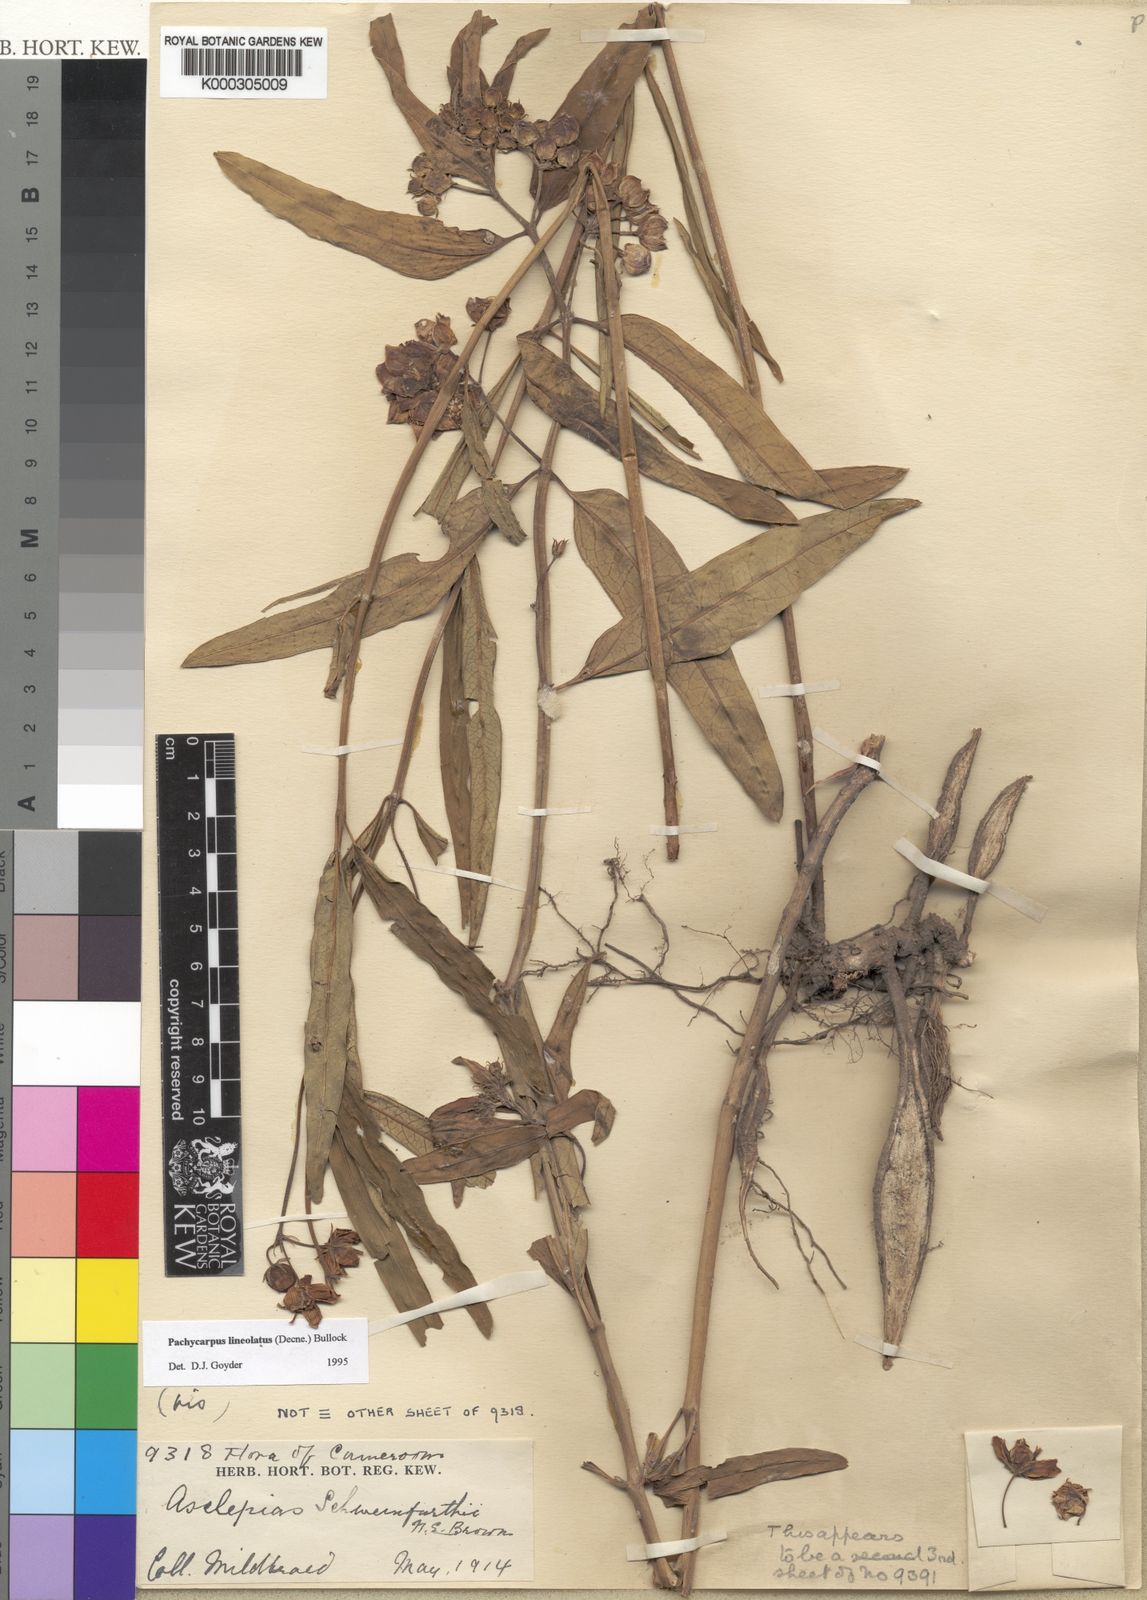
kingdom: Plantae
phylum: Tracheophyta
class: Magnoliopsida
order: Gentianales
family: Apocynaceae
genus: Pachycarpus
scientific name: Pachycarpus lineolatus
